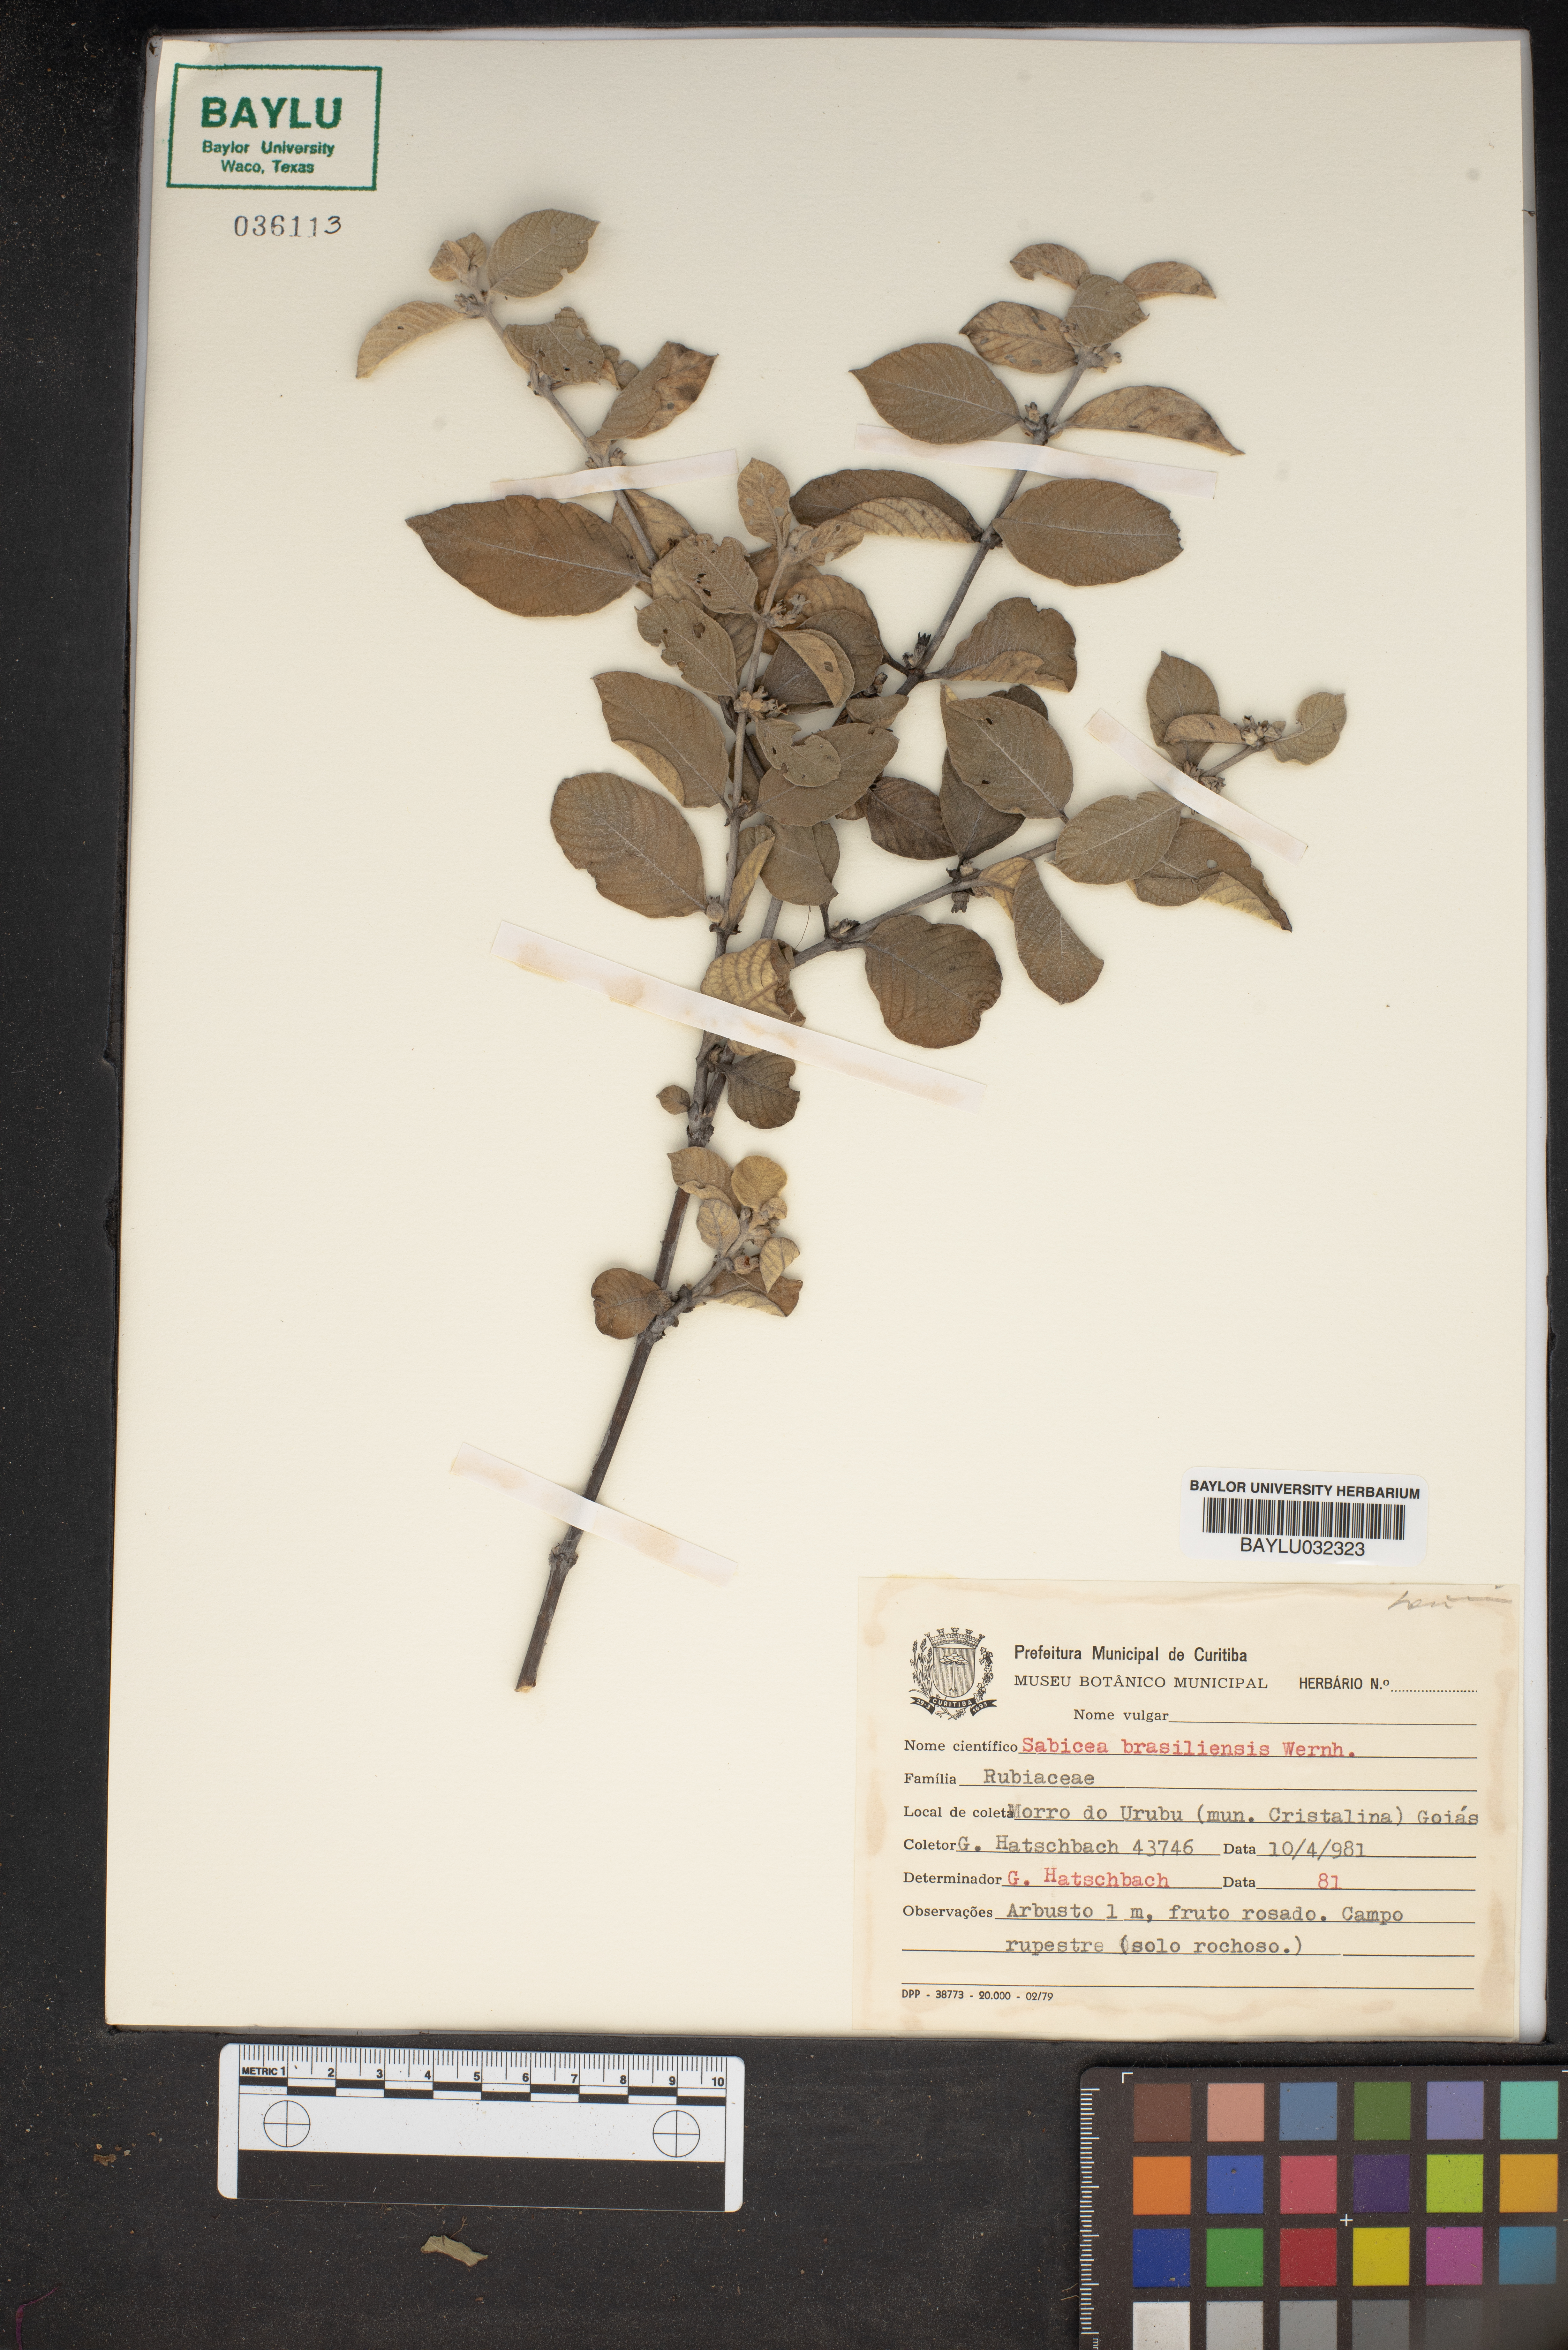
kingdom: Plantae
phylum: Tracheophyta
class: Magnoliopsida
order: Gentianales
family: Rubiaceae
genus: Sabicea
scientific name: Sabicea brasiliensis
